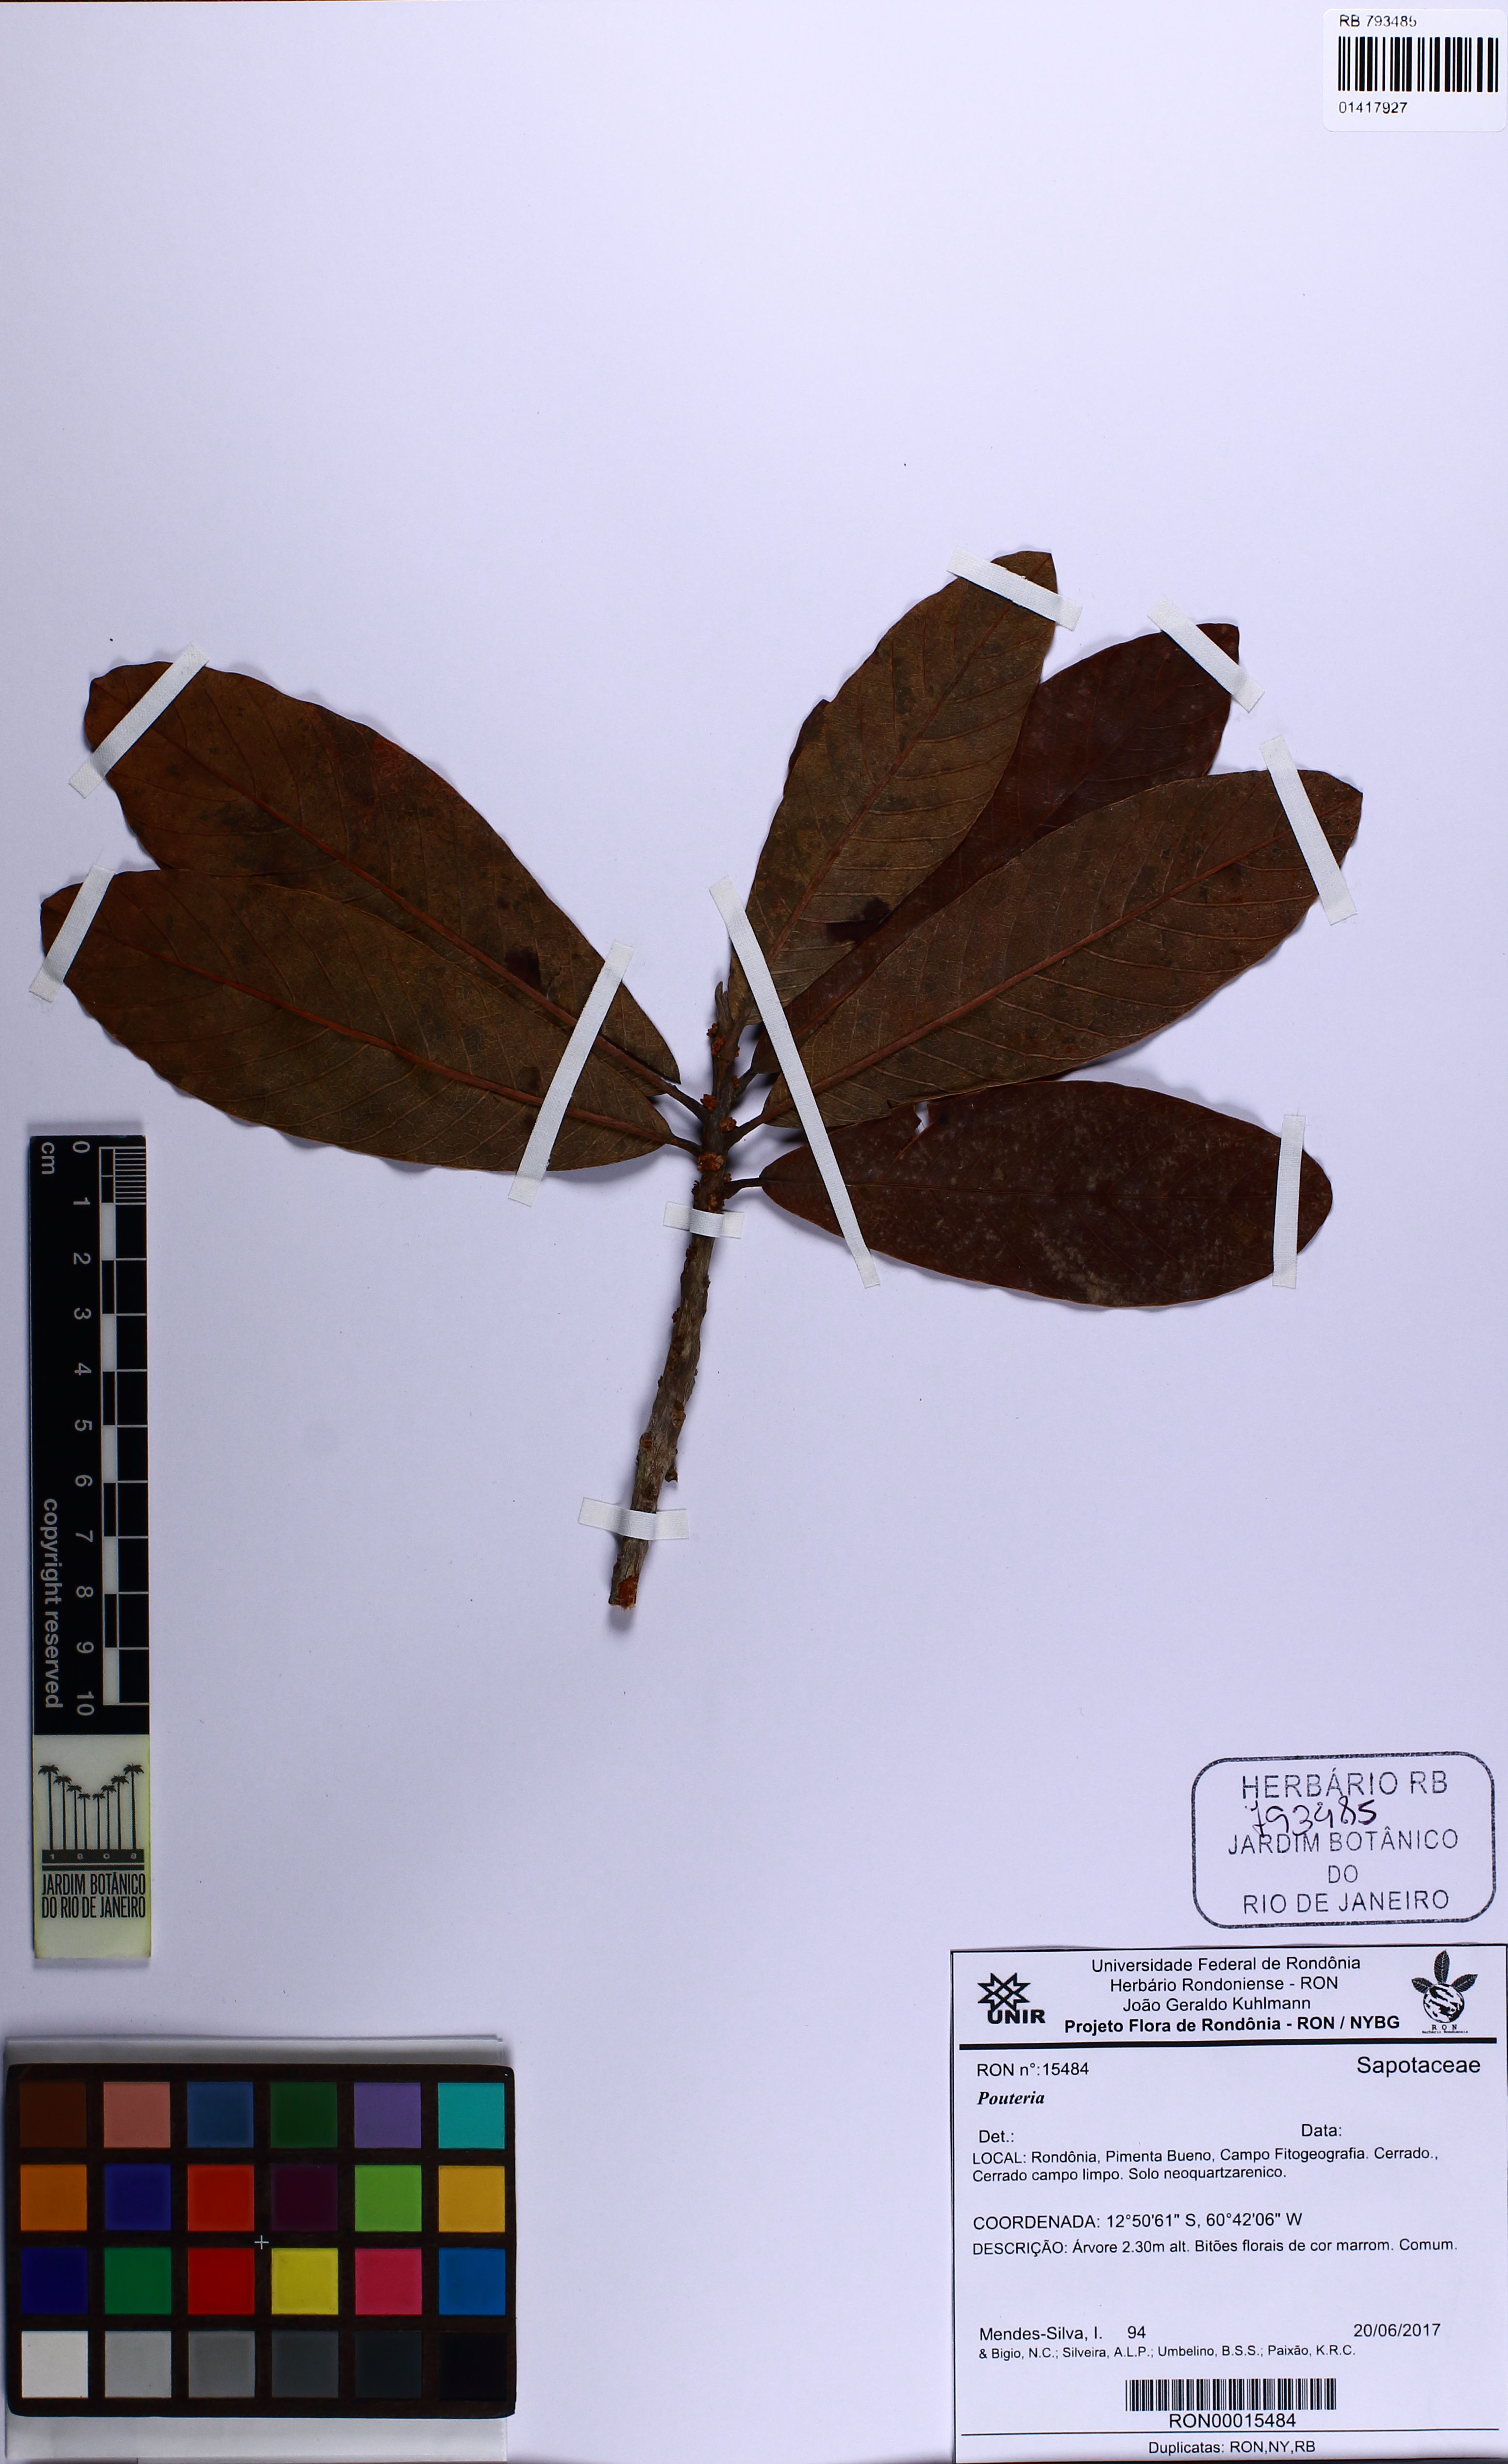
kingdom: Plantae
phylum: Tracheophyta
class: Magnoliopsida
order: Ericales
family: Sapotaceae
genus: Pouteria
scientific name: Pouteria torta
